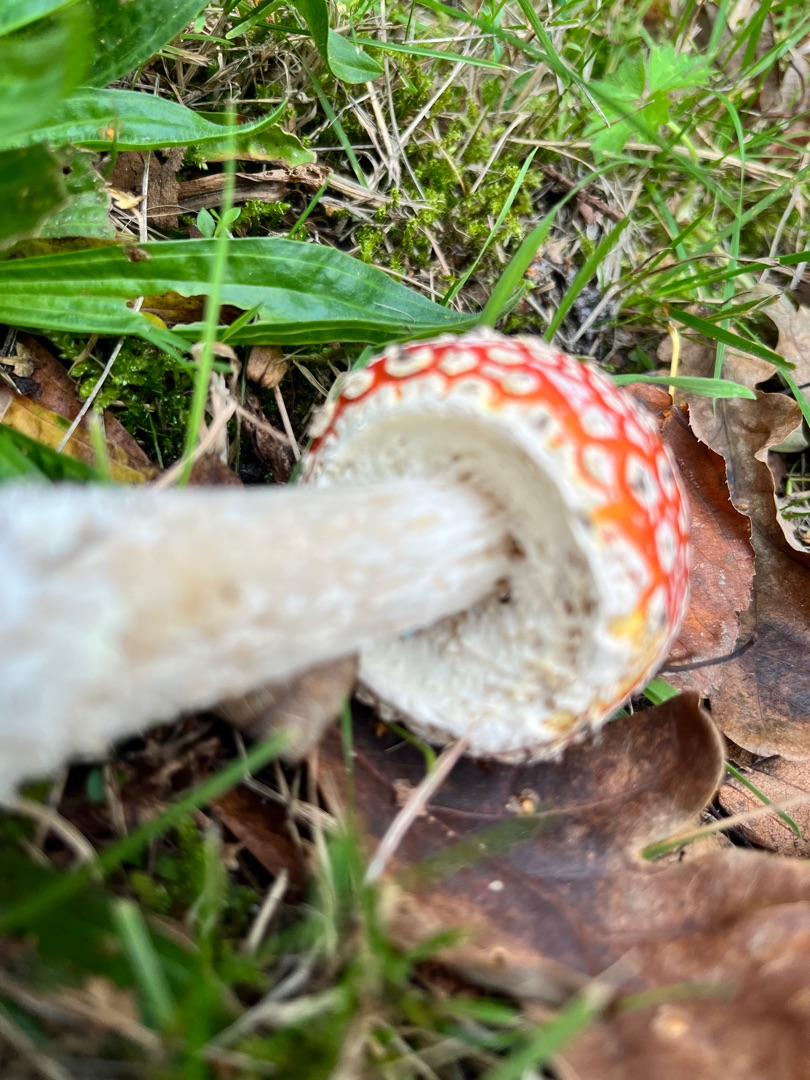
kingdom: Fungi
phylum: Basidiomycota
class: Agaricomycetes
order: Agaricales
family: Amanitaceae
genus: Amanita
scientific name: Amanita muscaria
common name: Rød fluesvamp
